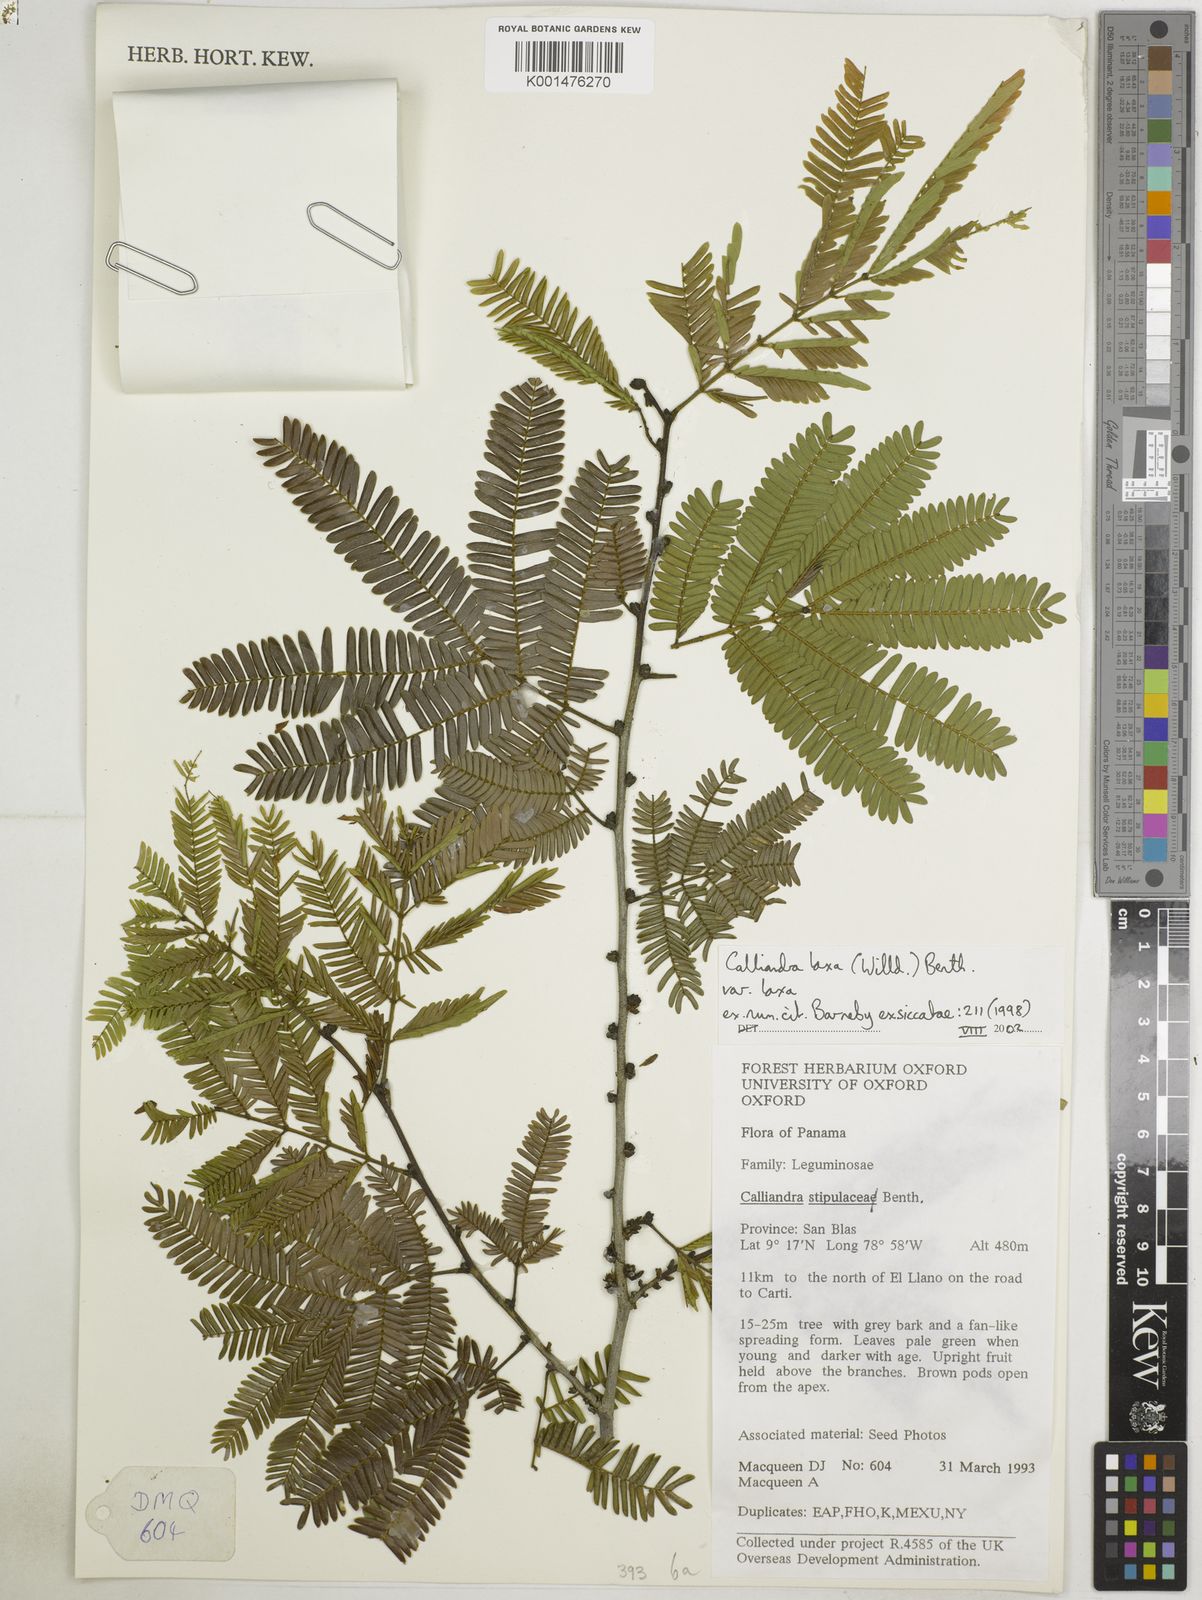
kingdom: Plantae
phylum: Tracheophyta
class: Magnoliopsida
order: Fabales
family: Fabaceae
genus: Calliandra
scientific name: Calliandra laxa
